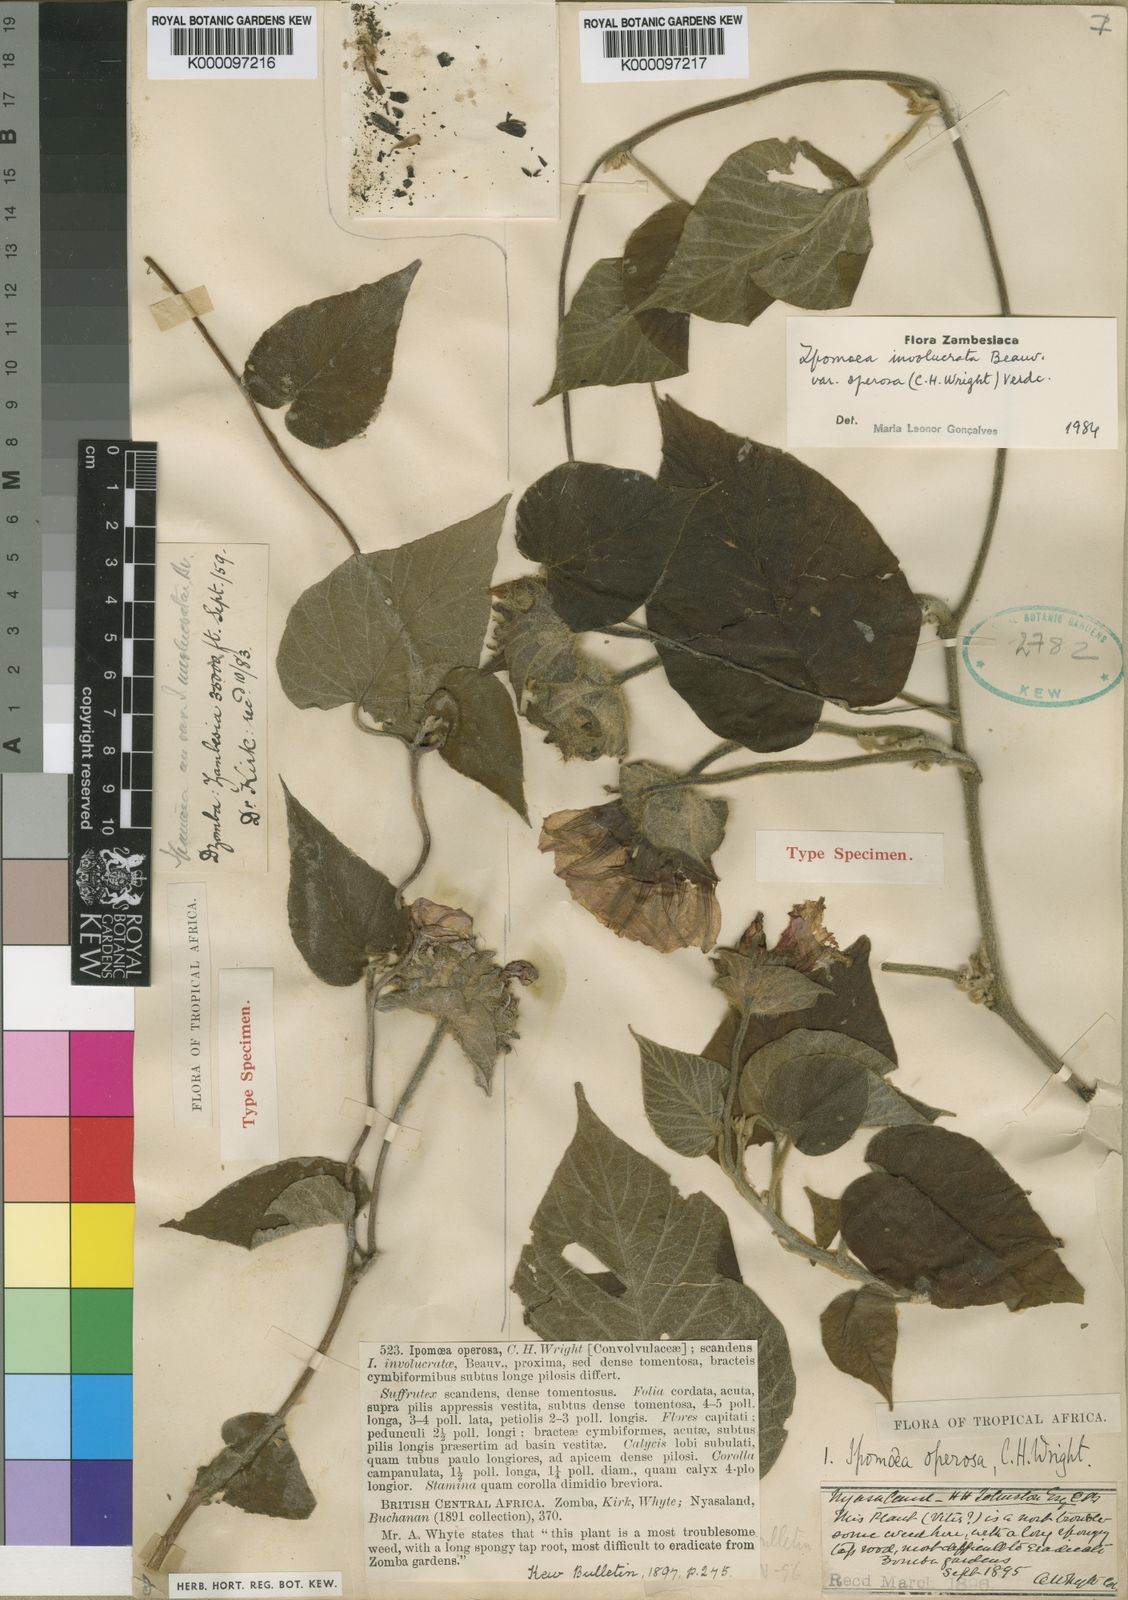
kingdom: Plantae
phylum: Tracheophyta
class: Magnoliopsida
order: Solanales
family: Convolvulaceae
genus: Ipomoea
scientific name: Ipomoea involucrata
